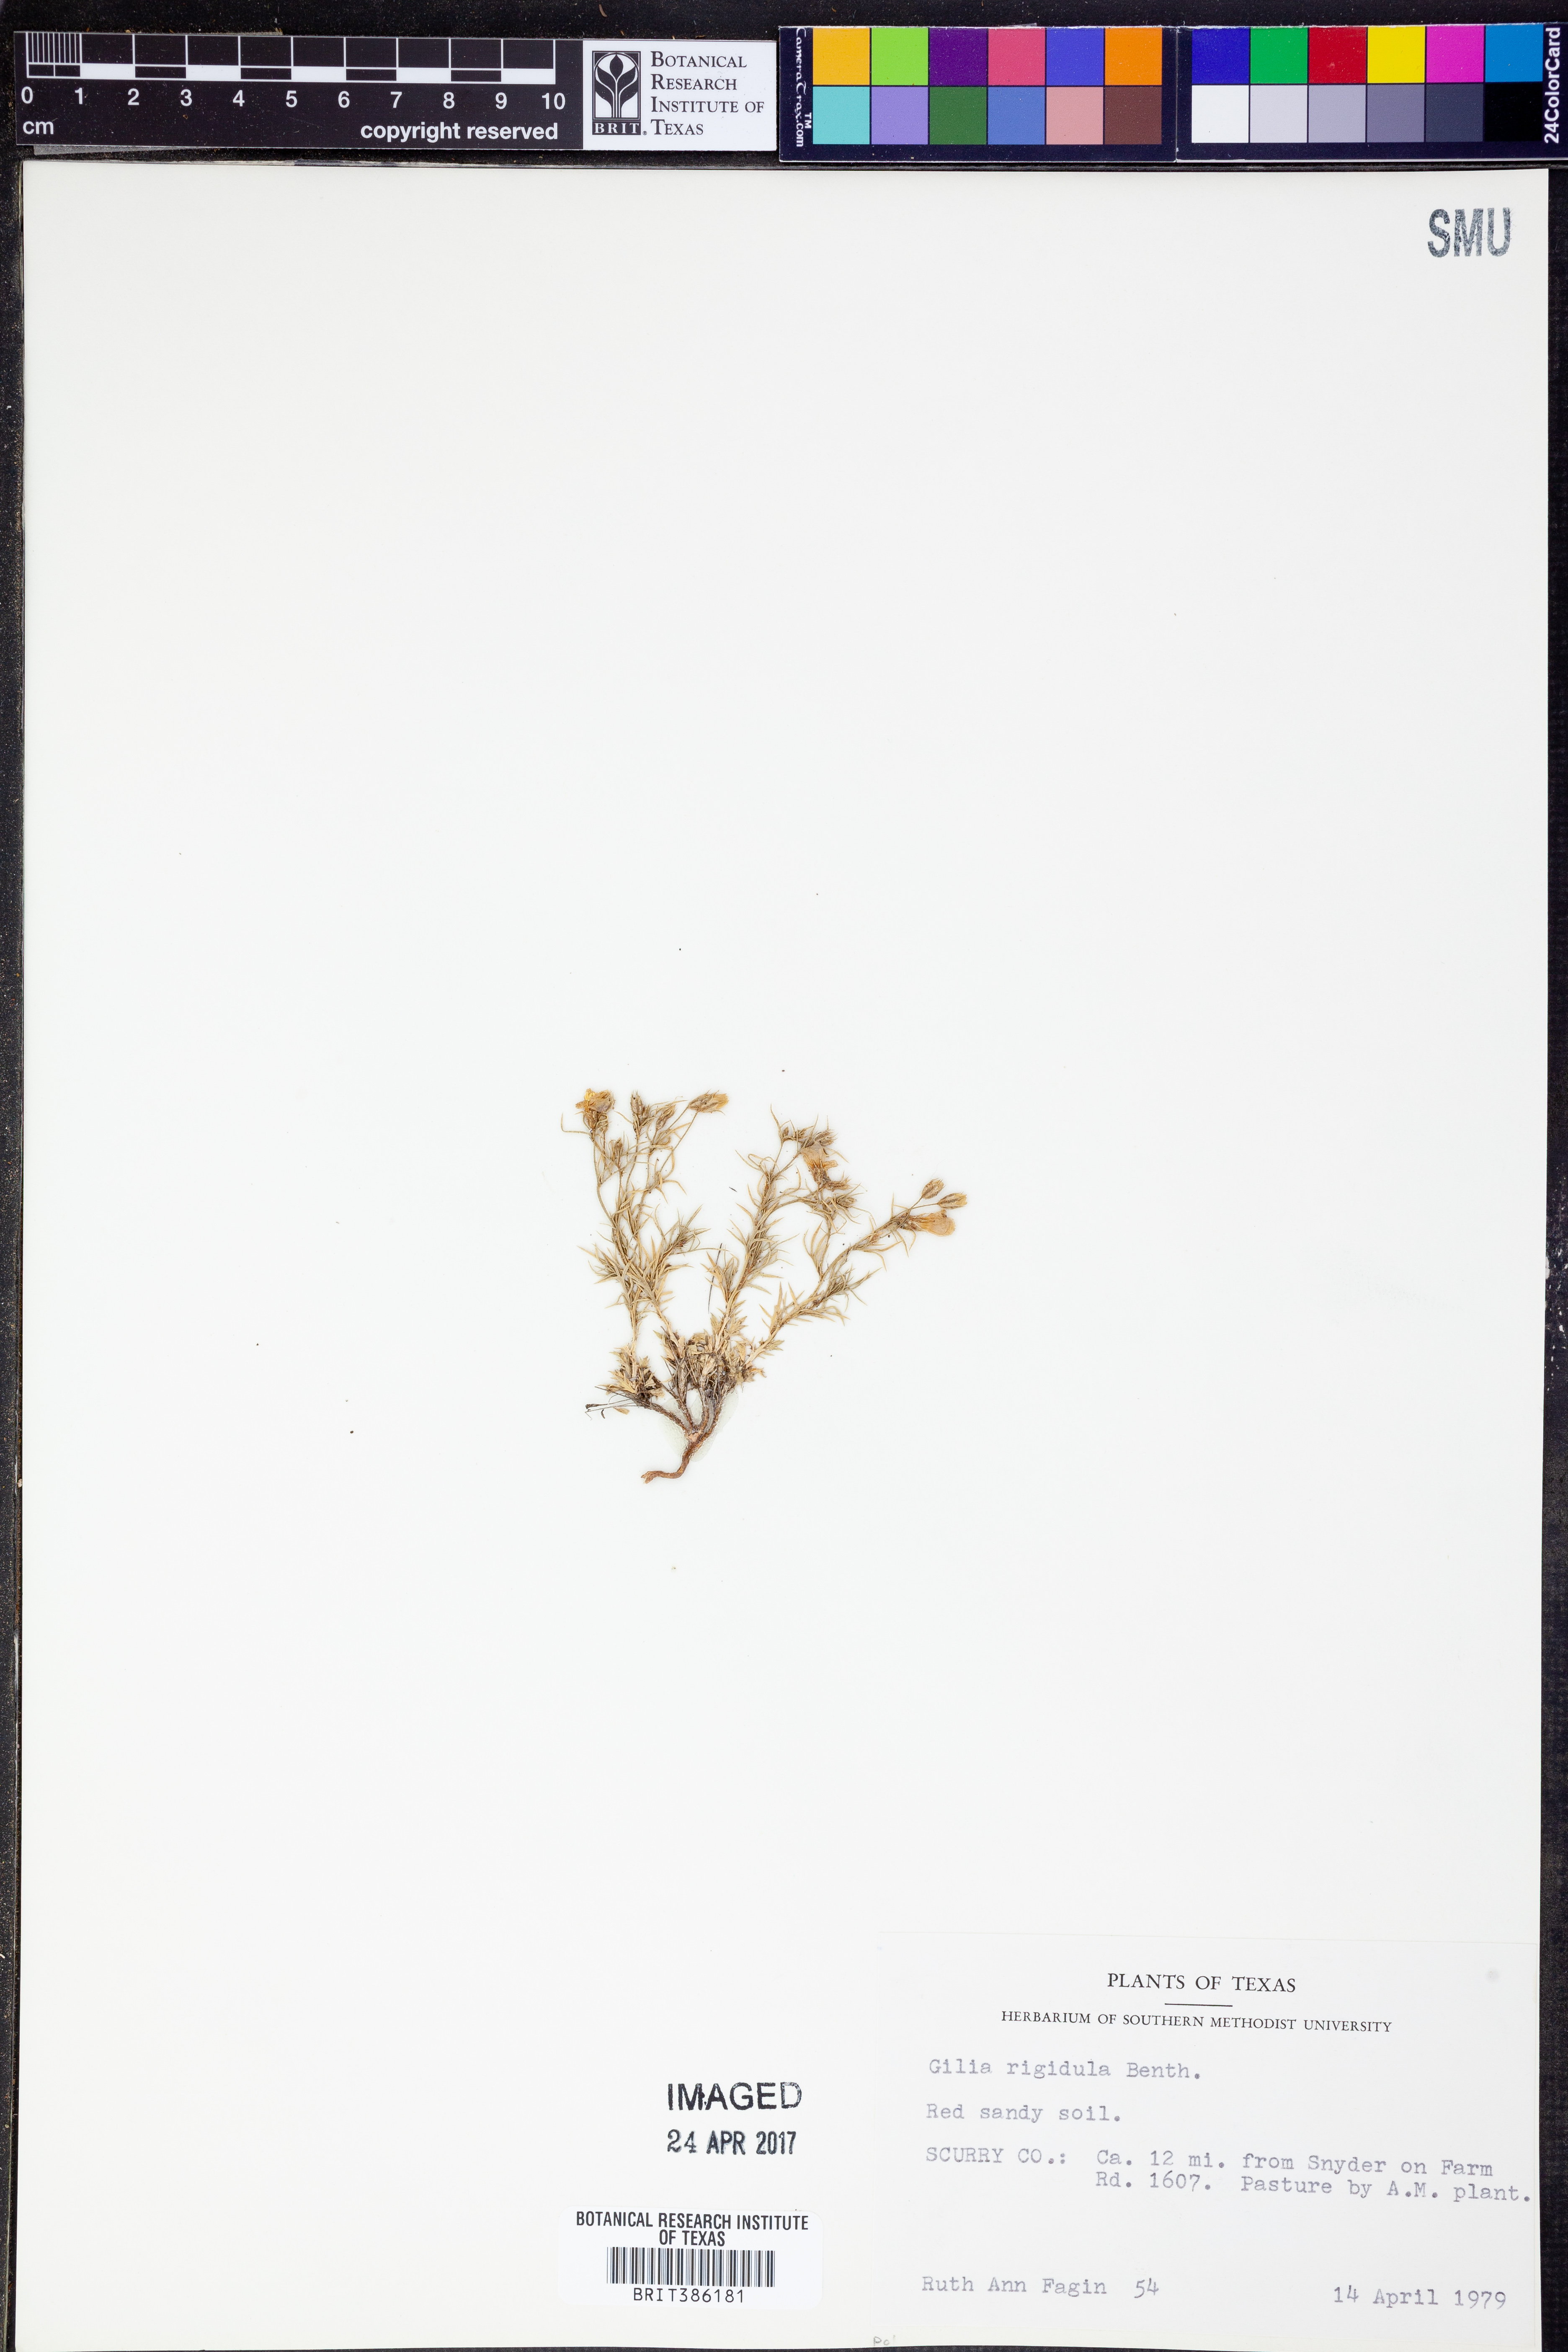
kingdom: Plantae
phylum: Tracheophyta
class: Magnoliopsida
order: Ericales
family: Polemoniaceae
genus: Giliastrum
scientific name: Giliastrum rigidulum
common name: Bluebowls
